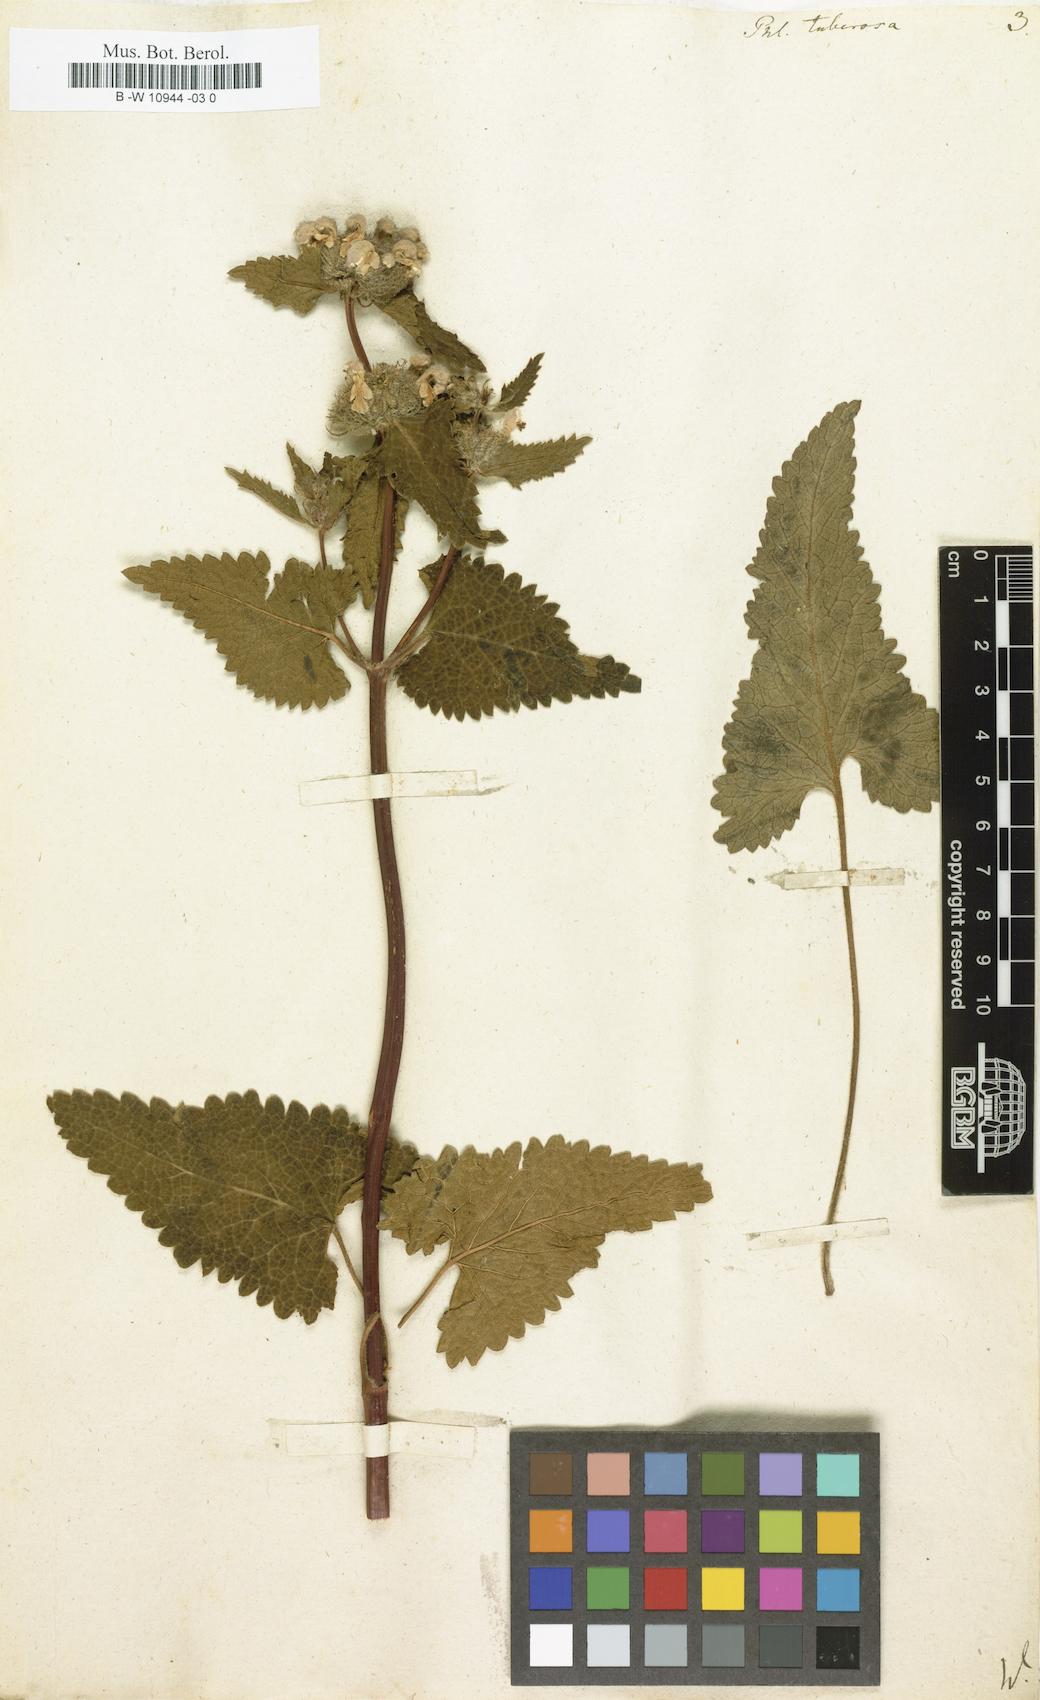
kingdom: Plantae
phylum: Tracheophyta
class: Magnoliopsida
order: Lamiales
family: Lamiaceae
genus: Phlomoides
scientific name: Phlomoides tuberosa
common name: Tuberous jerusalem sage
